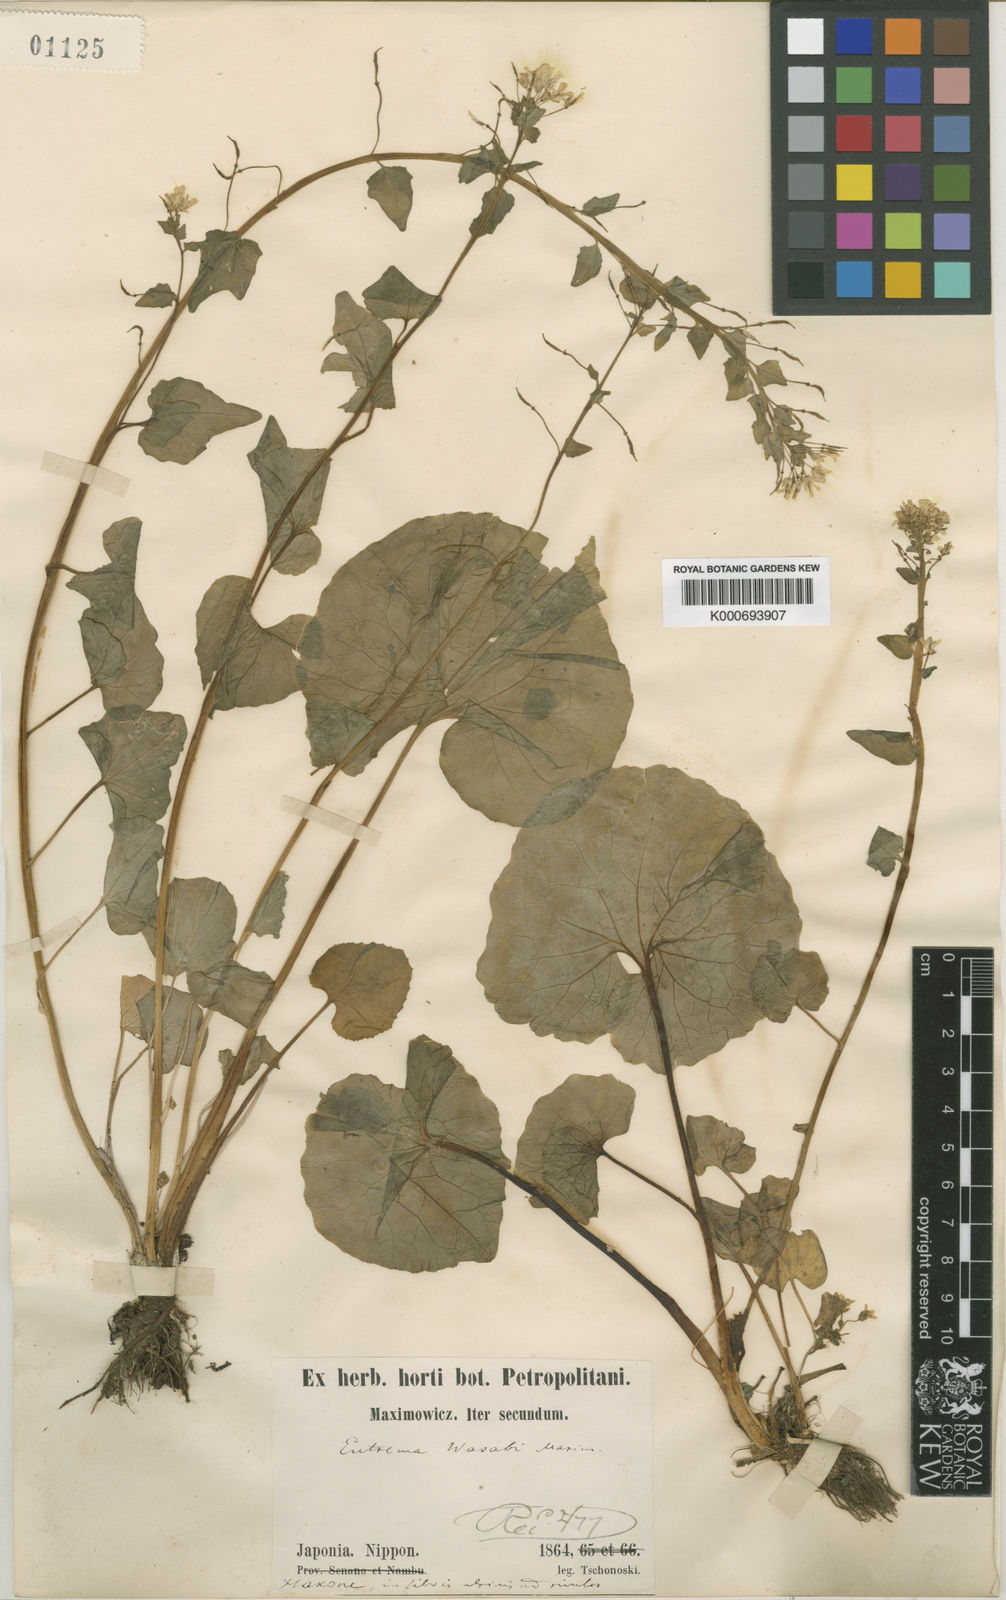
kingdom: Plantae
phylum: Tracheophyta
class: Magnoliopsida
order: Brassicales
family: Brassicaceae
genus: Eutrema
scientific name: Eutrema japonicum
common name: Japanese-horseradish
